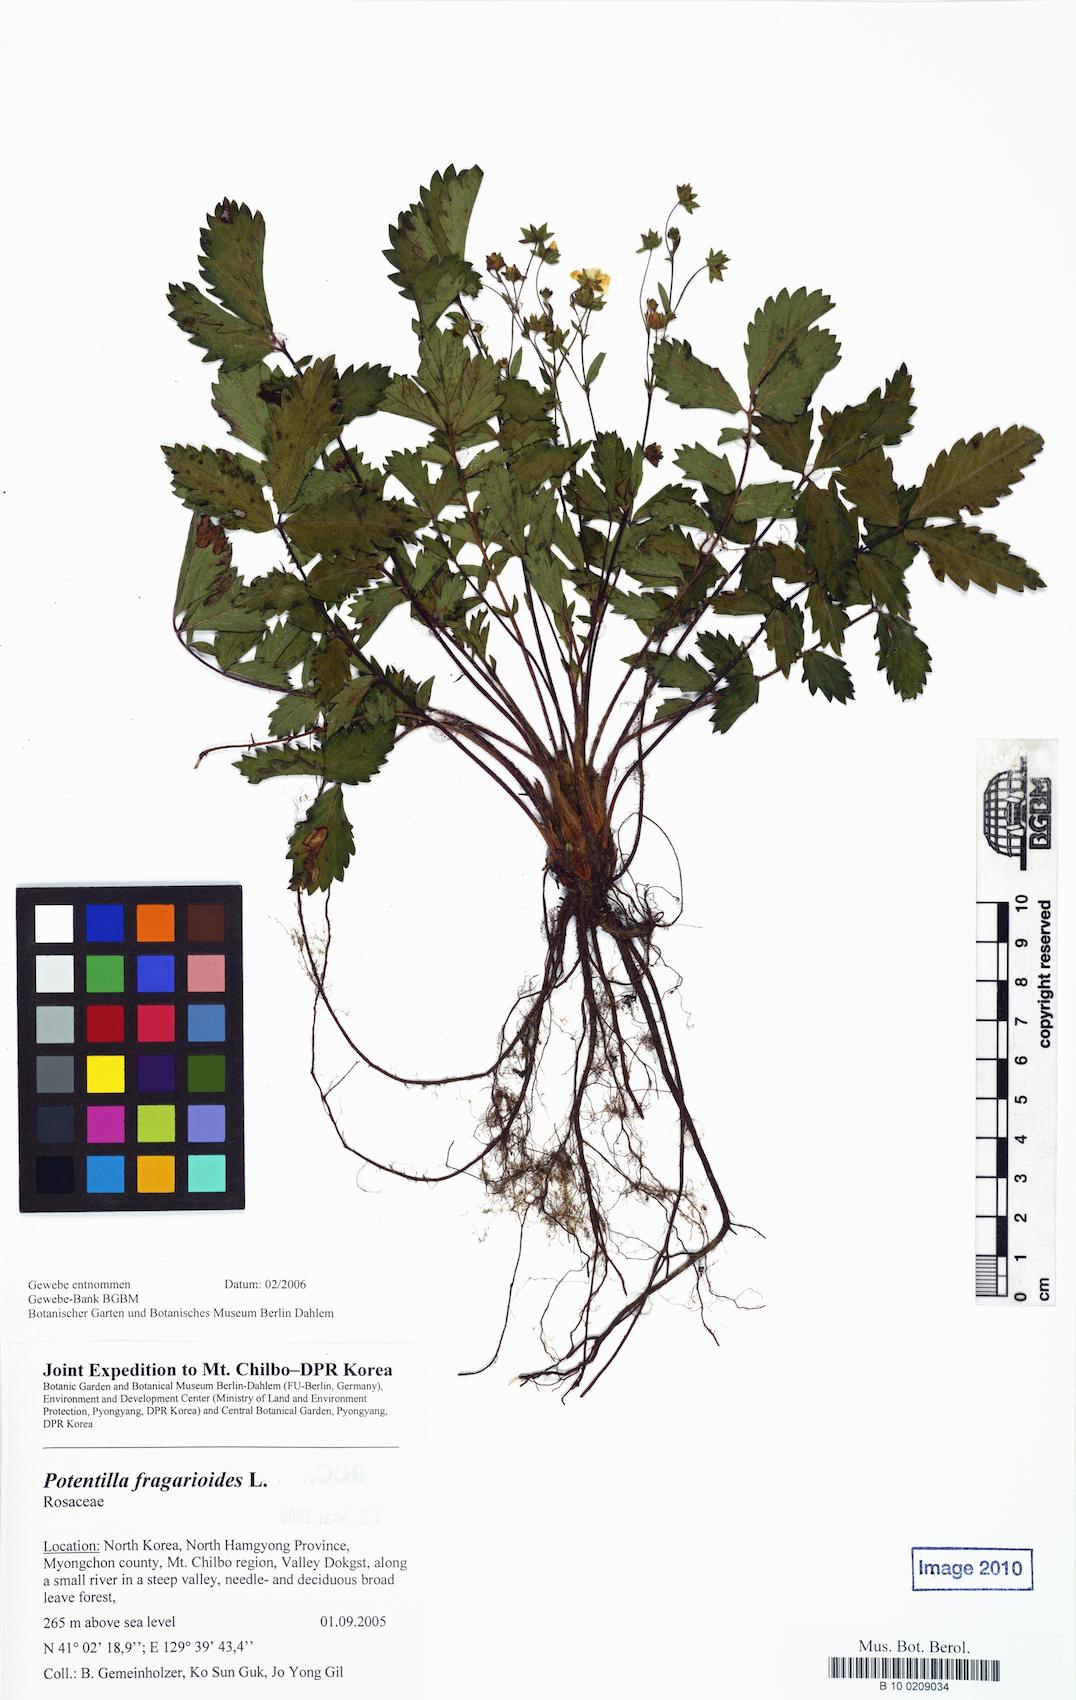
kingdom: Plantae
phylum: Tracheophyta
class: Magnoliopsida
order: Rosales
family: Rosaceae
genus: Potentilla
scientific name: Potentilla fragarioides
